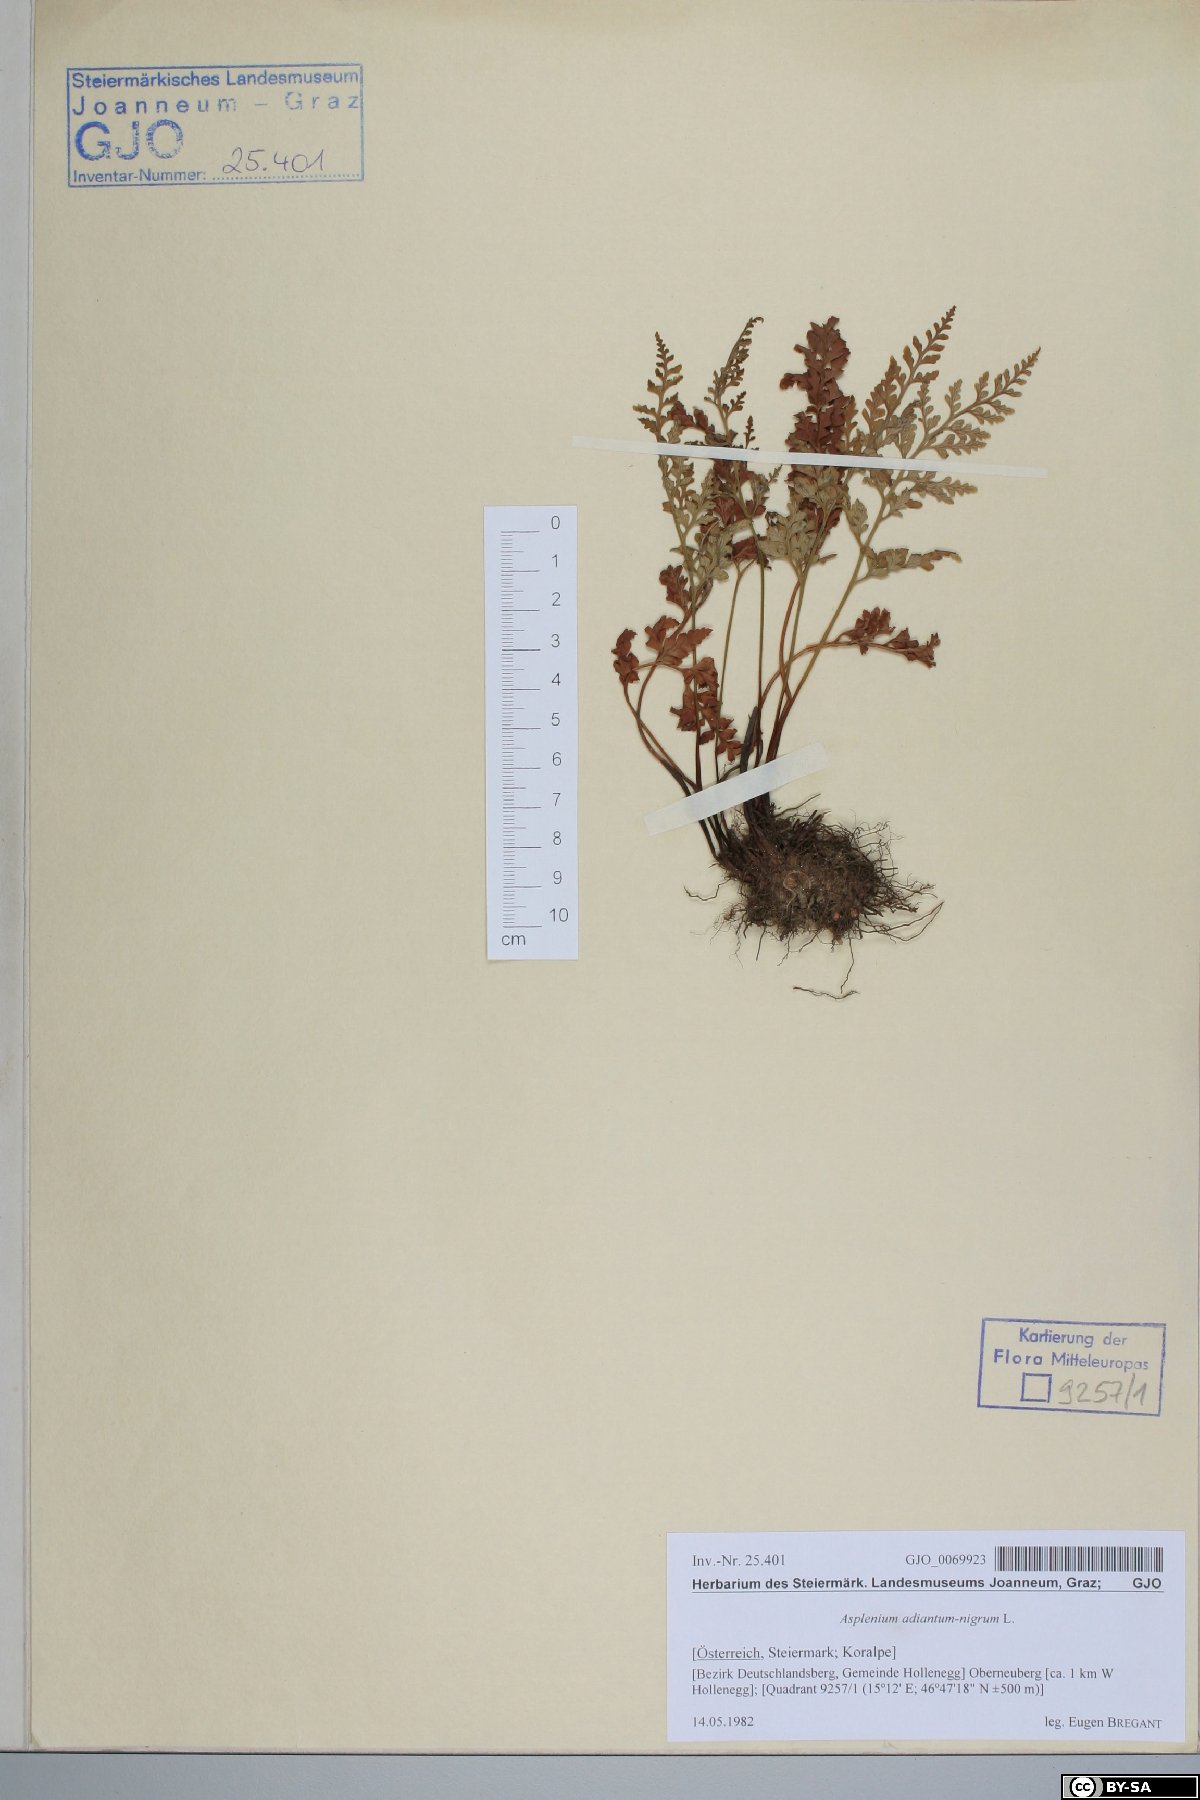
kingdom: Plantae
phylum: Tracheophyta
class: Polypodiopsida
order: Polypodiales
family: Aspleniaceae
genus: Asplenium
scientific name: Asplenium adiantum-nigrum
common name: Black spleenwort
